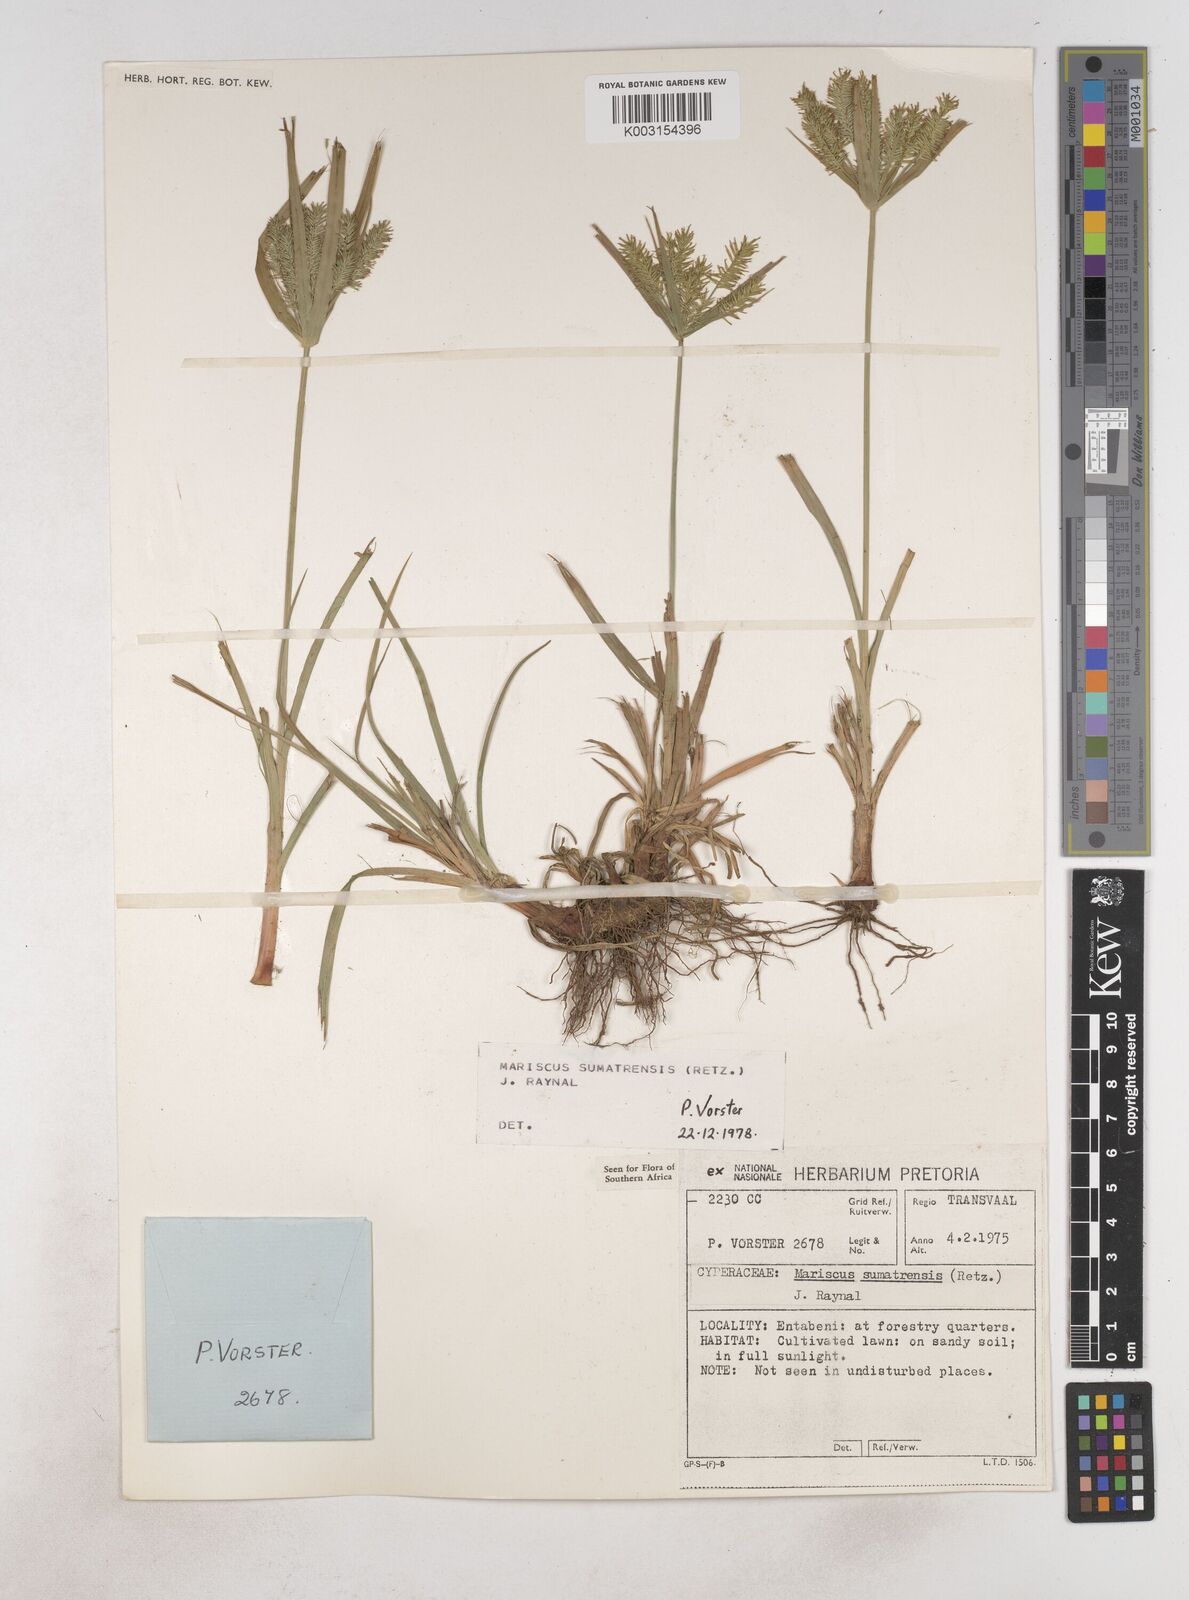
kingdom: Plantae
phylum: Tracheophyta
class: Liliopsida
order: Poales
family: Cyperaceae
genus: Cyperus
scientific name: Cyperus cyperoides
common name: Pacific island flat sedge
